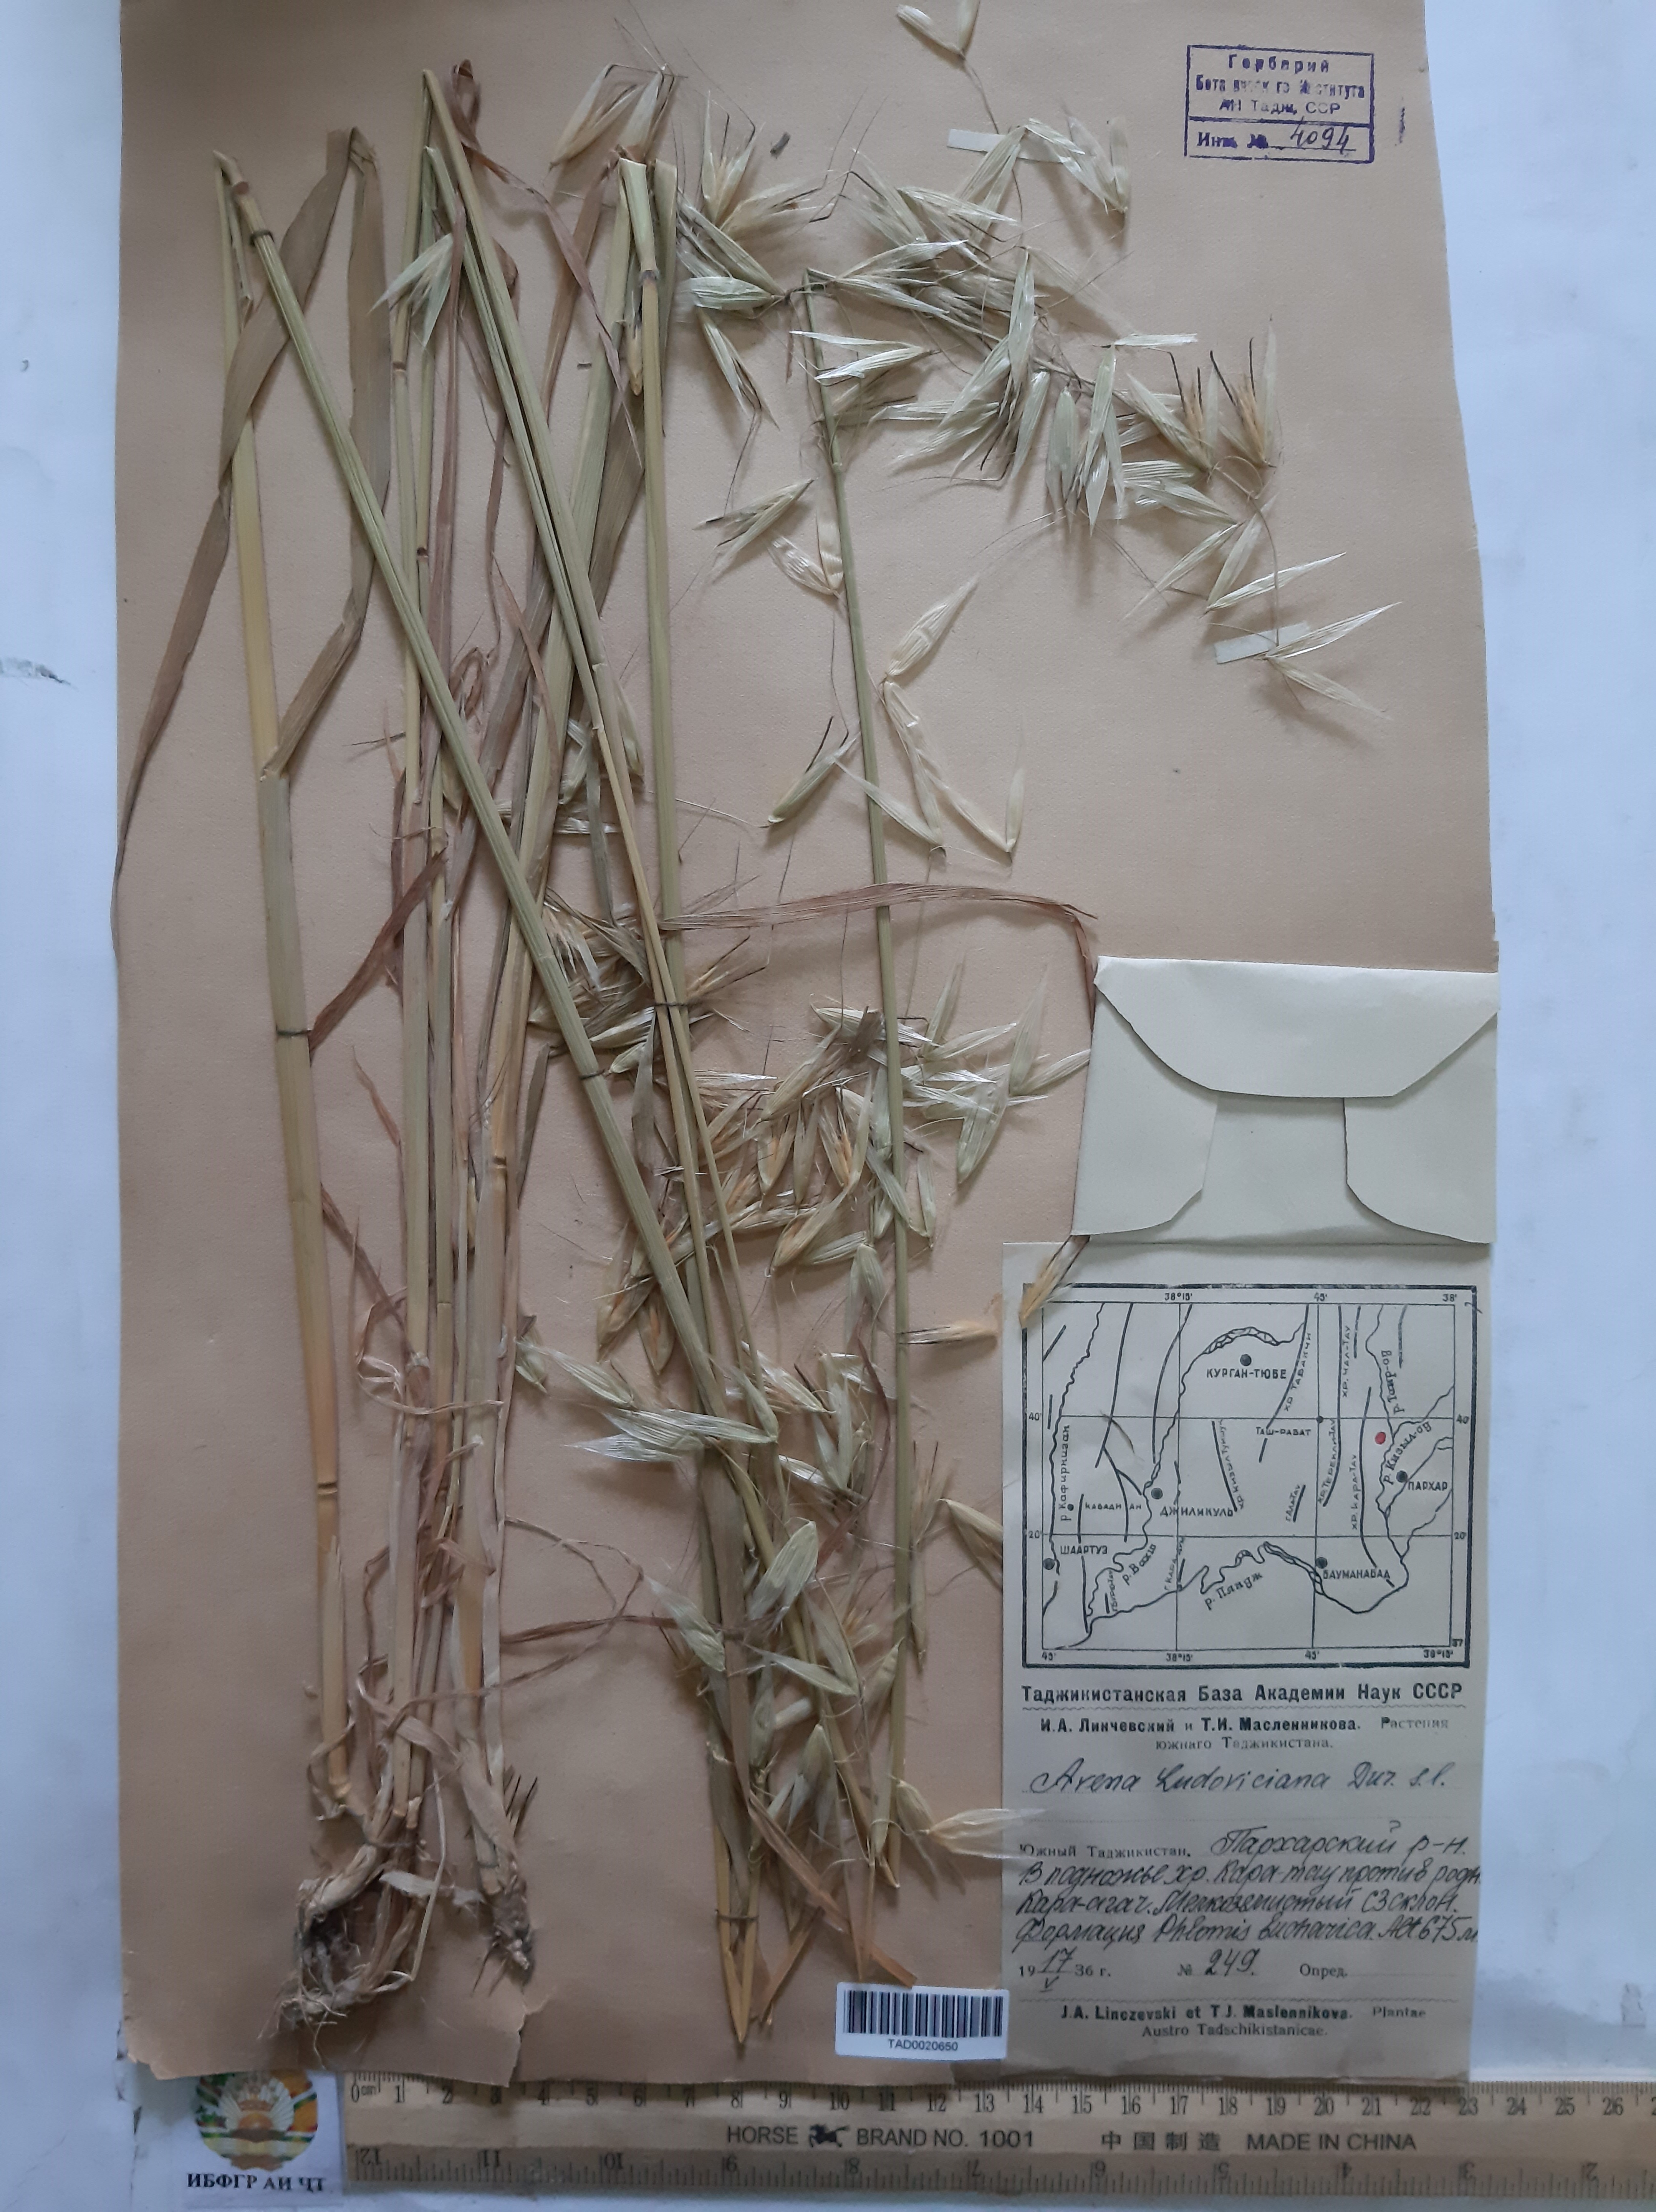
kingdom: Plantae
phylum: Tracheophyta
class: Liliopsida
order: Poales
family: Poaceae
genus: Avena
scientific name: Avena sterilis
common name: Animated oat
